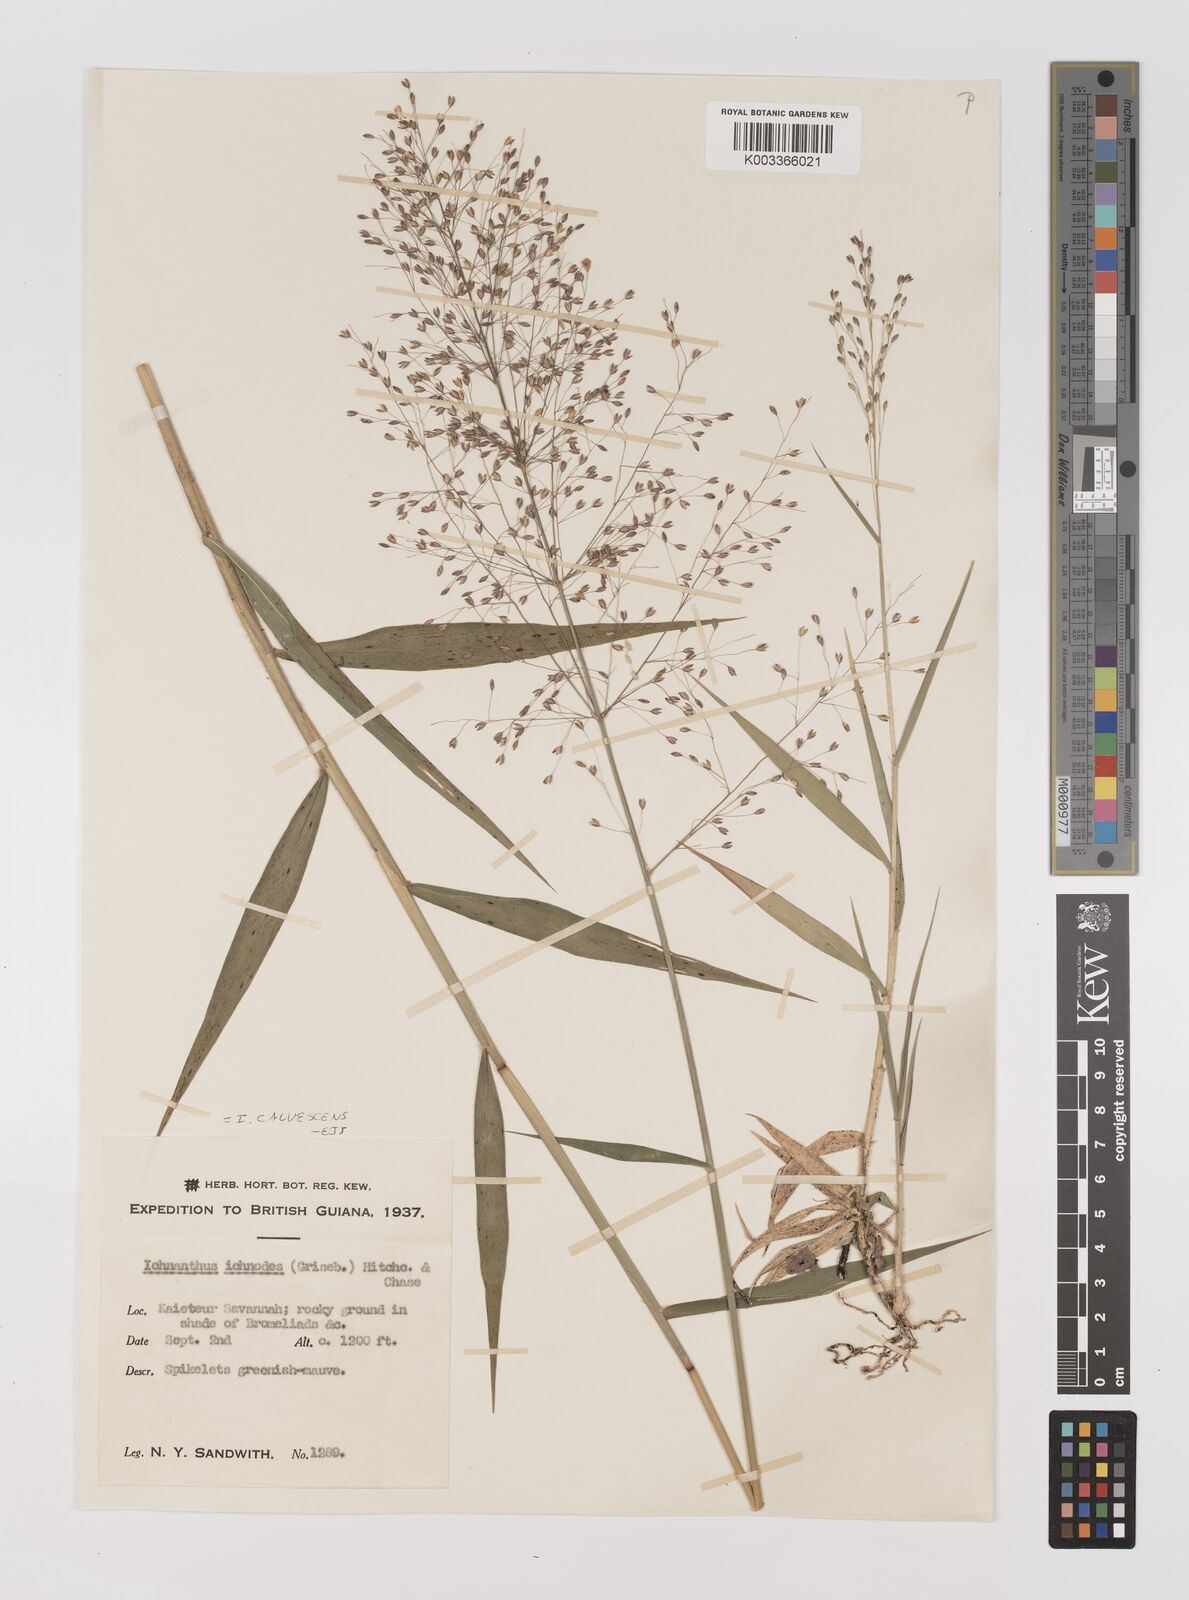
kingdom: Plantae
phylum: Tracheophyta
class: Liliopsida
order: Poales
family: Poaceae
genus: Ichnanthus
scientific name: Ichnanthus calvescens
